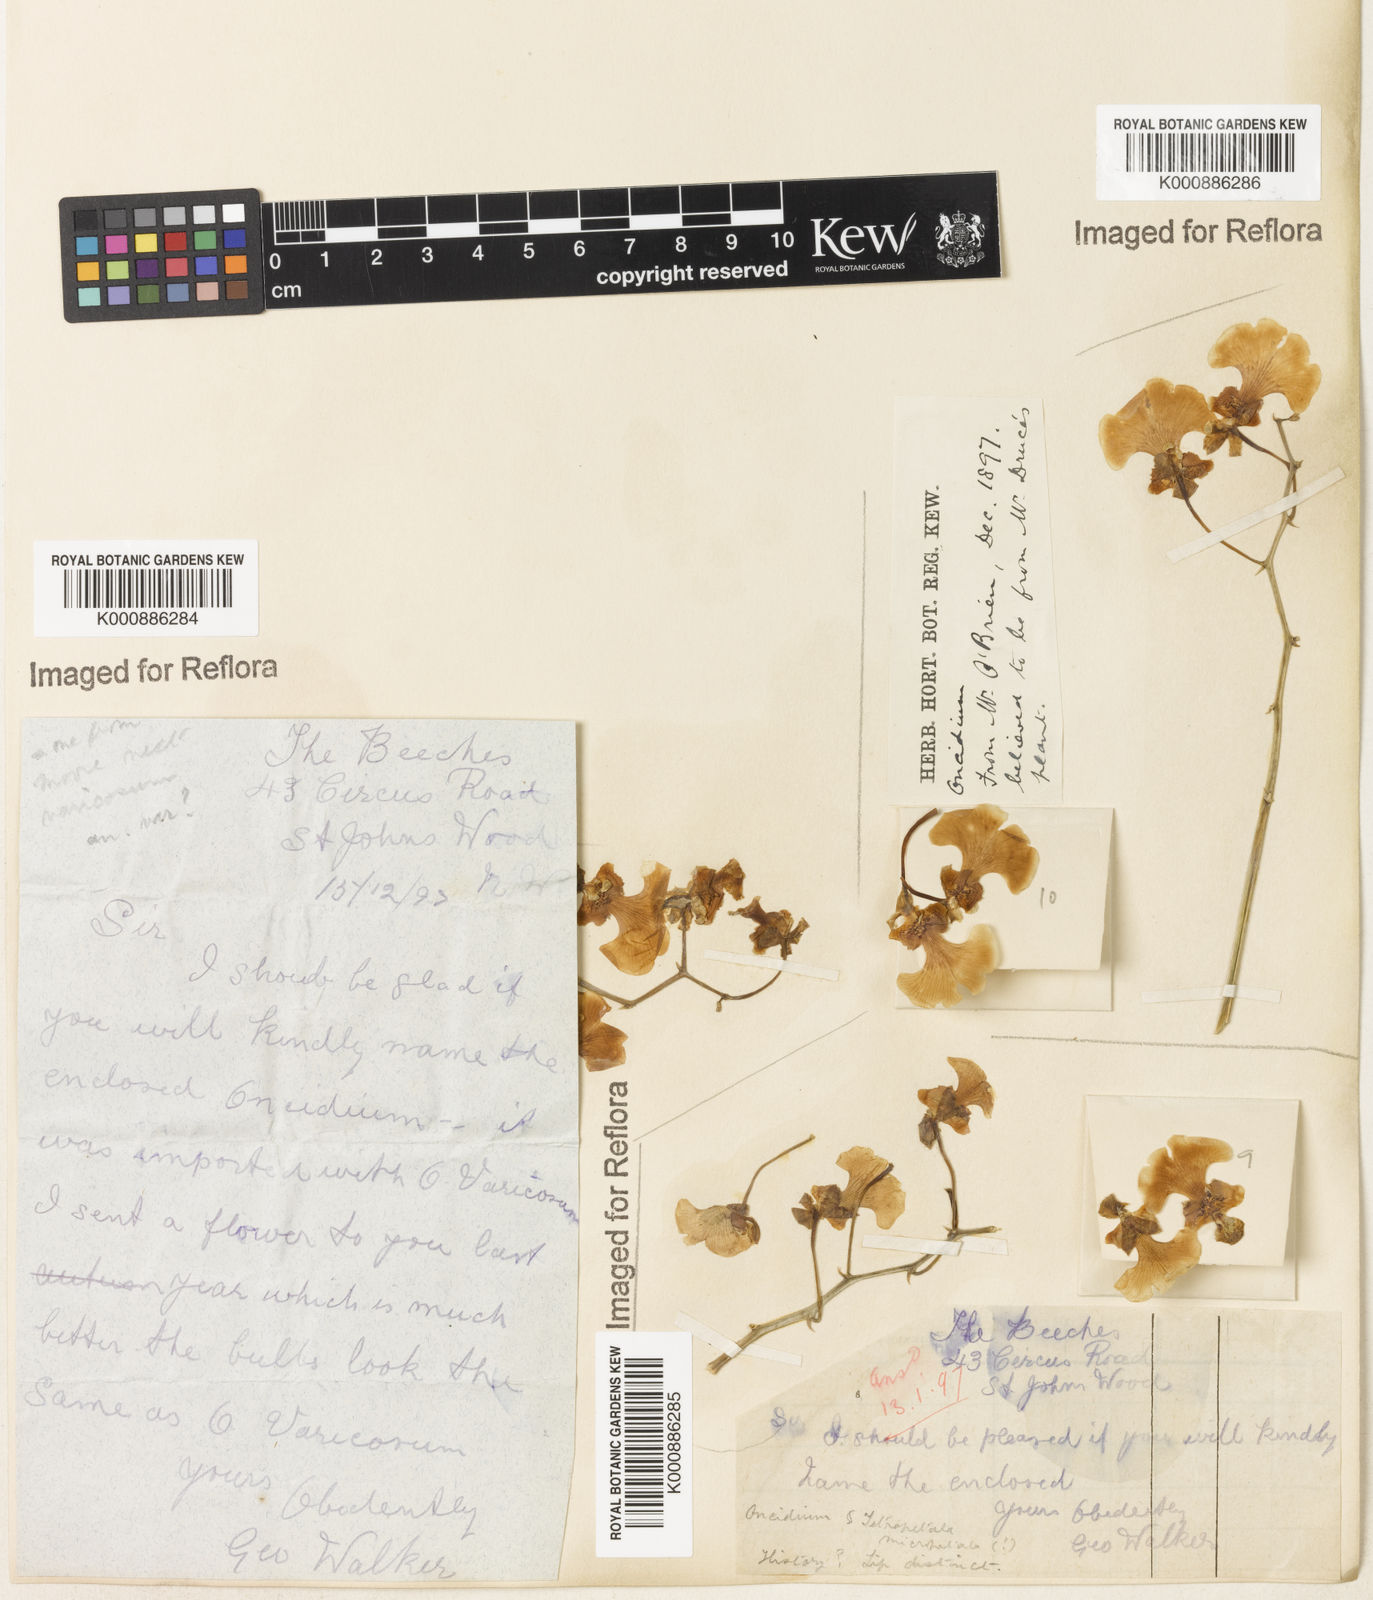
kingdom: Plantae
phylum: Tracheophyta
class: Liliopsida
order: Asparagales
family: Orchidaceae
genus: Gomesa
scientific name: Gomesa varicosa
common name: Dancing ladies
